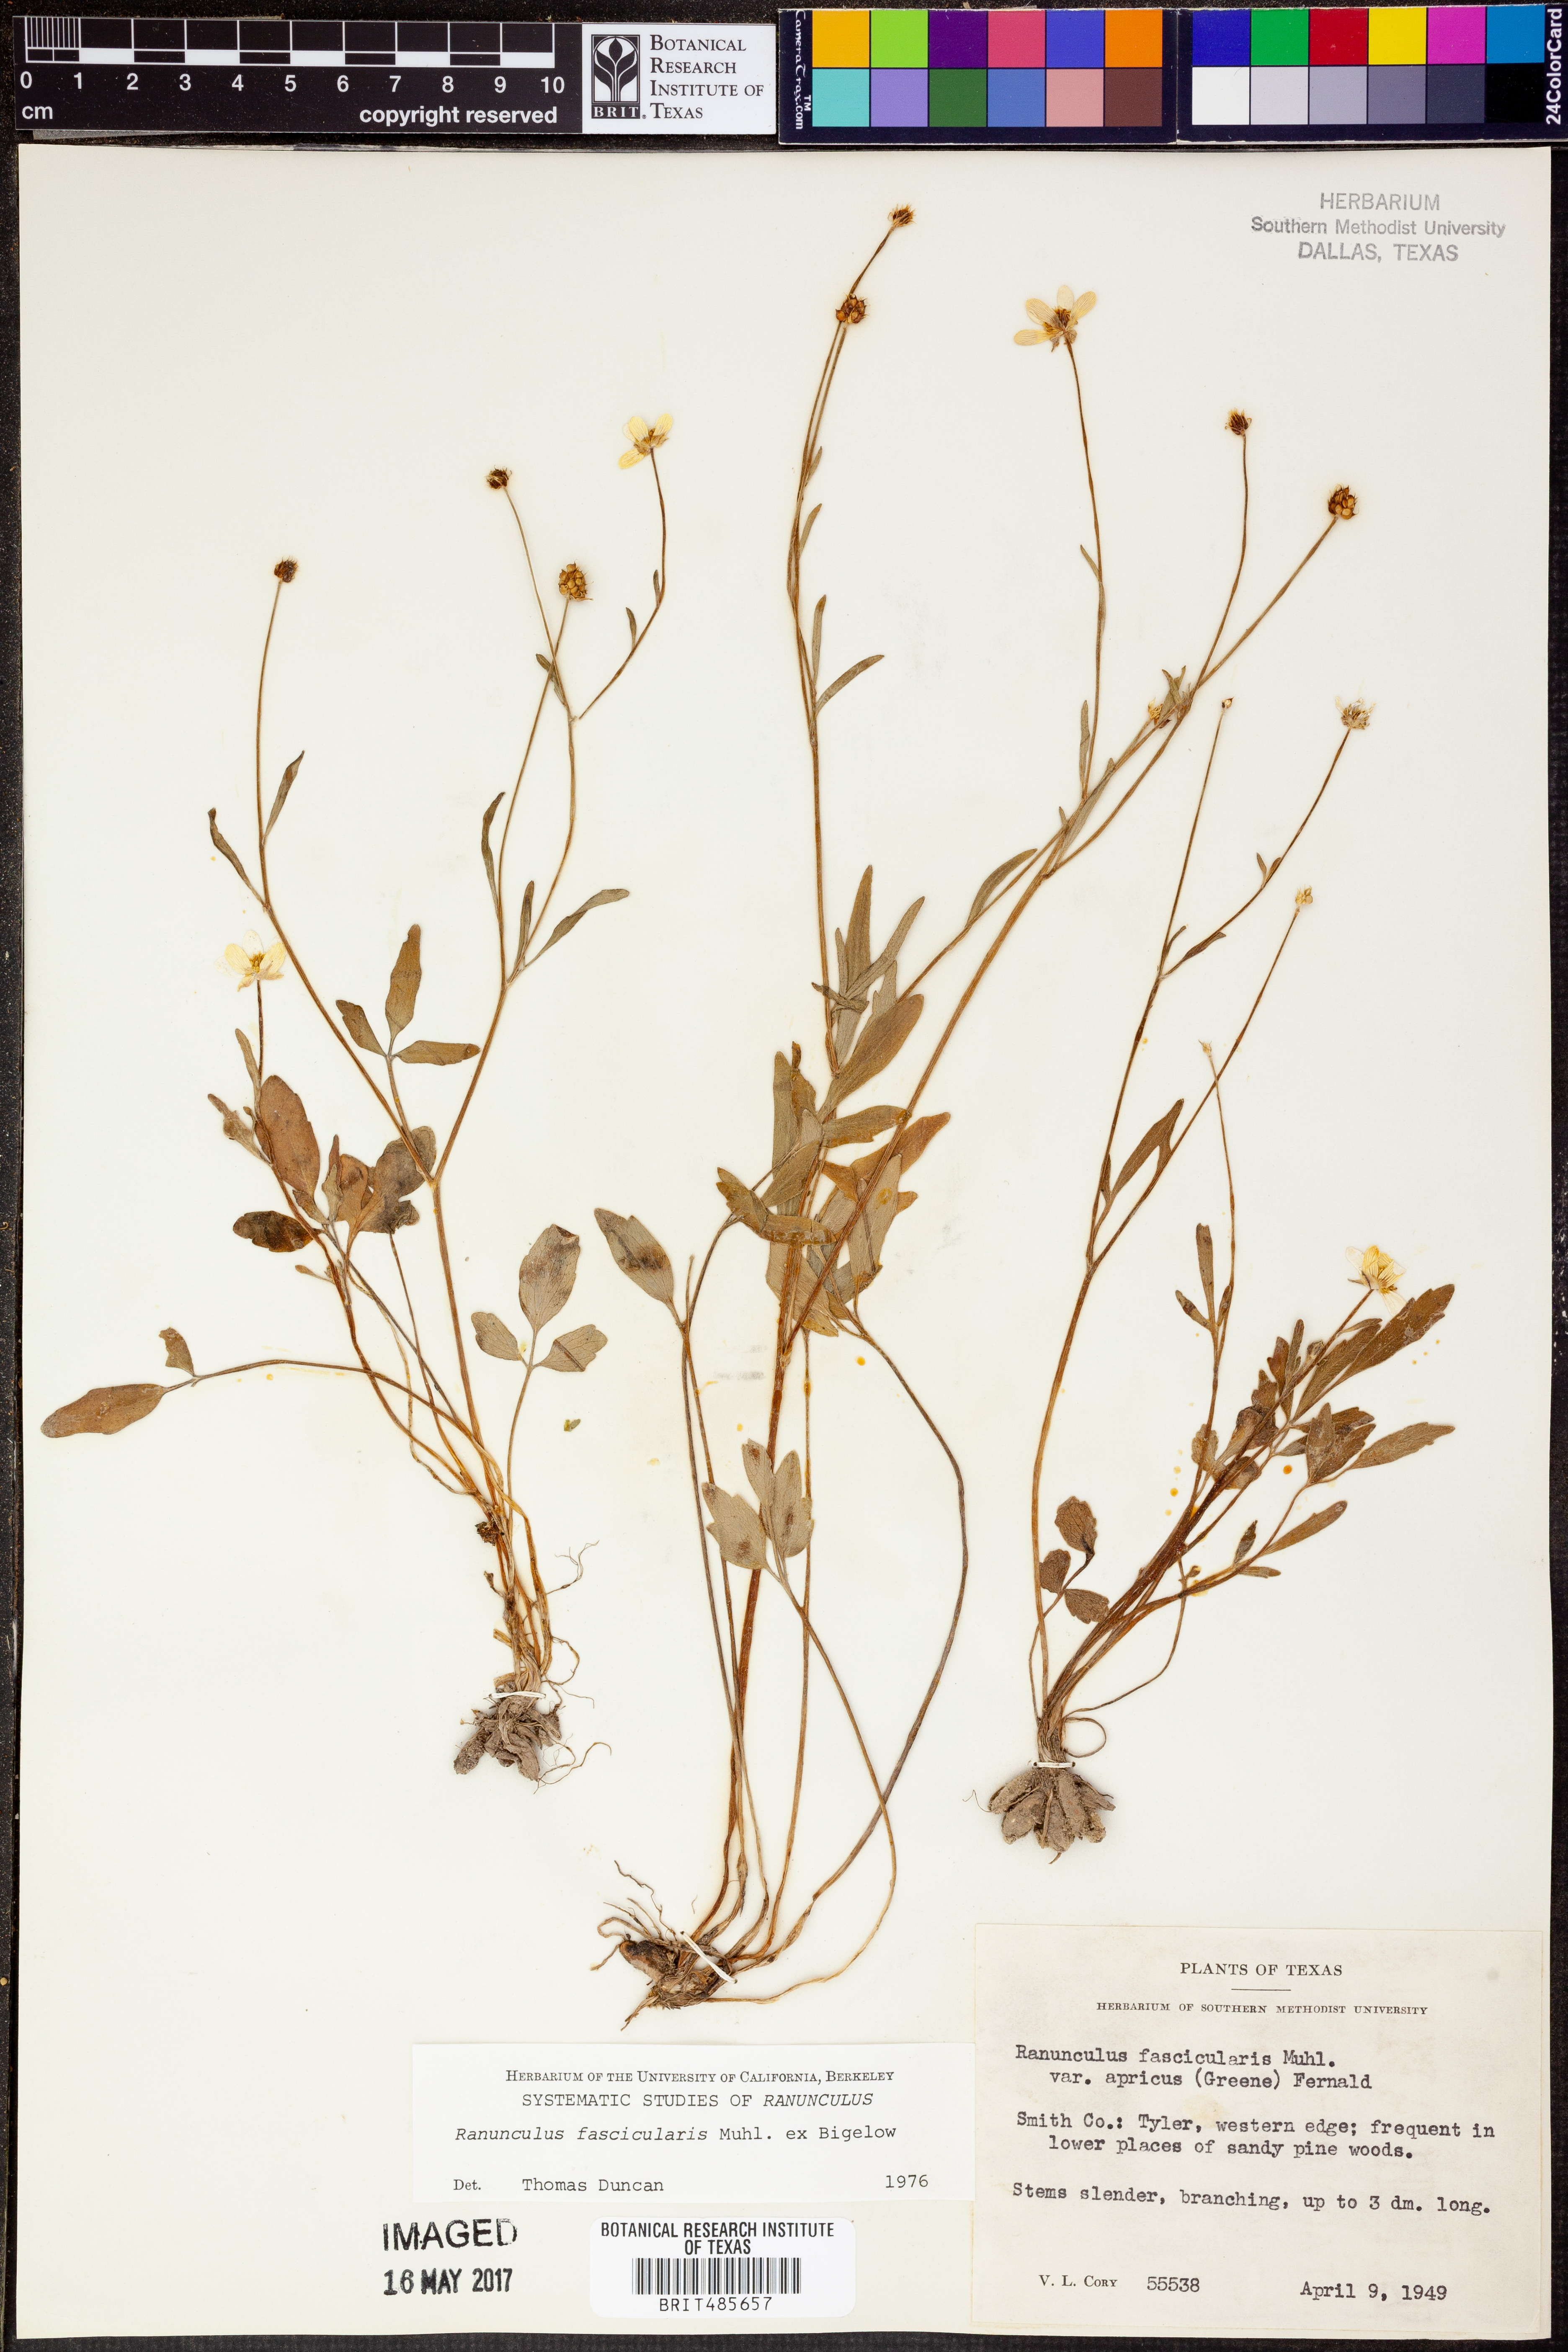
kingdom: Plantae
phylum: Tracheophyta
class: Magnoliopsida
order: Ranunculales
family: Ranunculaceae
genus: Ranunculus
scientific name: Ranunculus fascicularis
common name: Early buttercup
